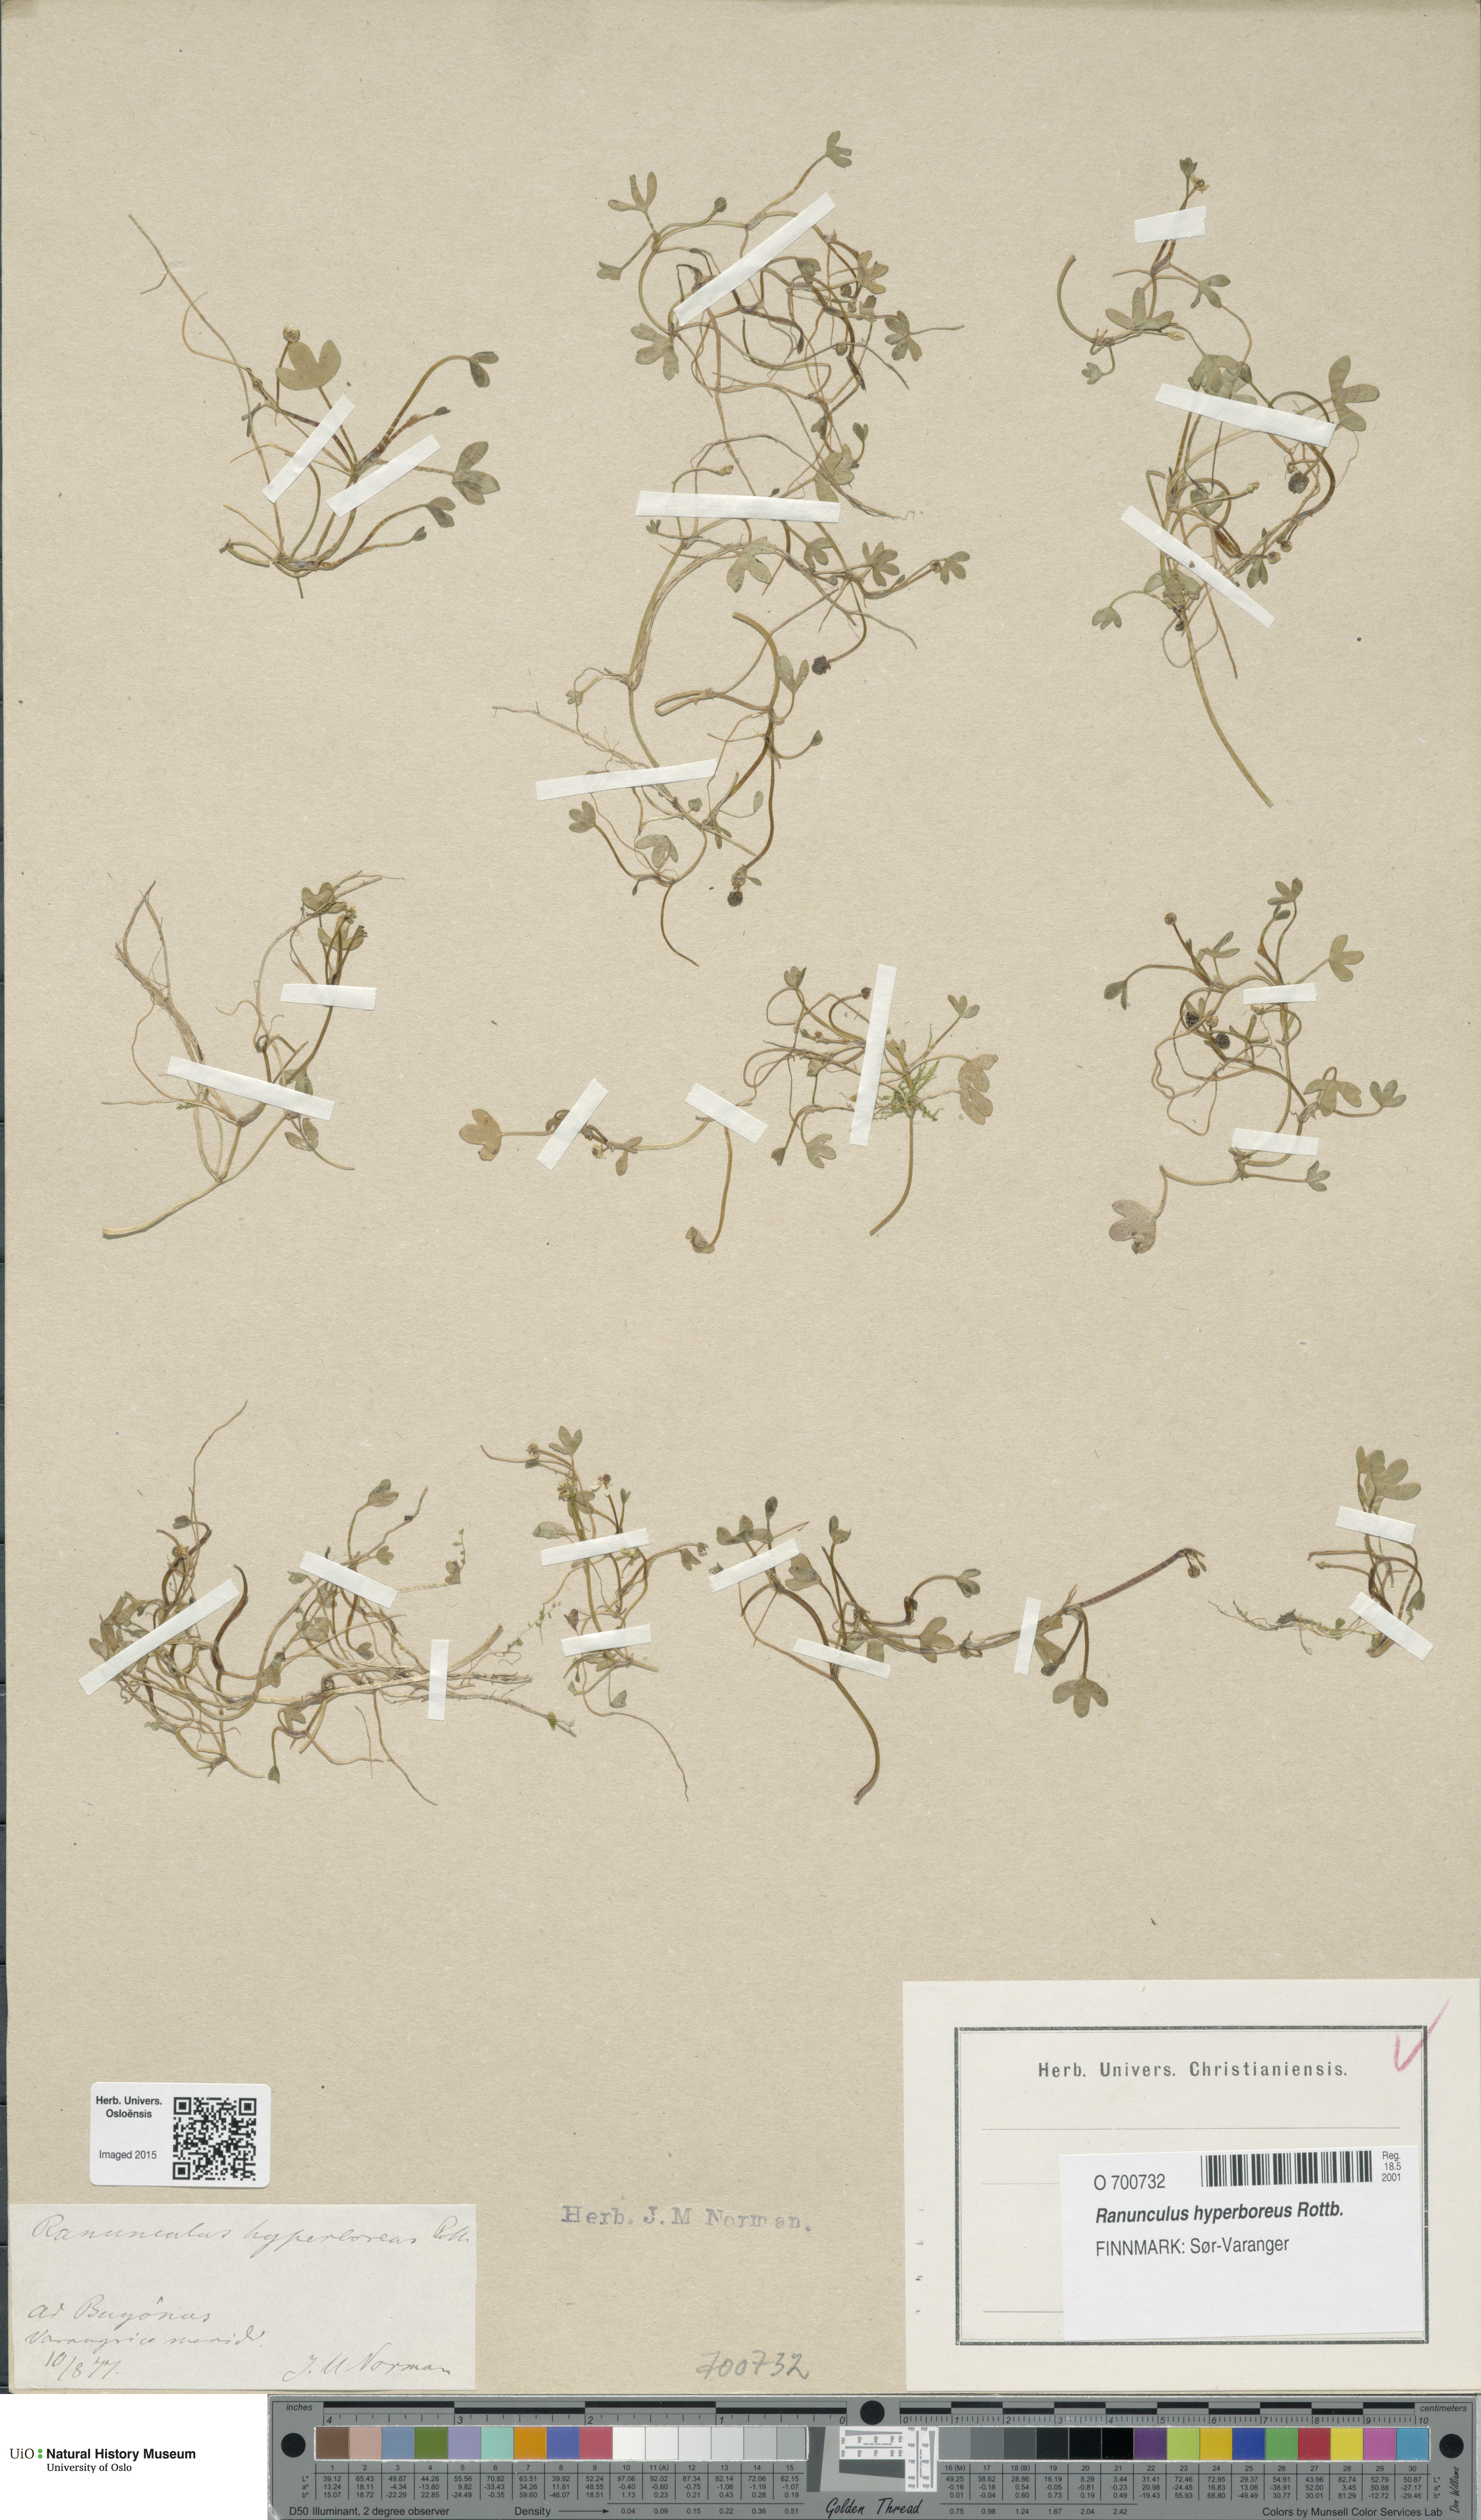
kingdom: Plantae
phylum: Tracheophyta
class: Magnoliopsida
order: Ranunculales
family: Ranunculaceae
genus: Ranunculus
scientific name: Ranunculus hyperboreus
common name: Arctic buttercup
